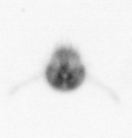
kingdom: Animalia
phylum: Arthropoda
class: Copepoda
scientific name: Copepoda
